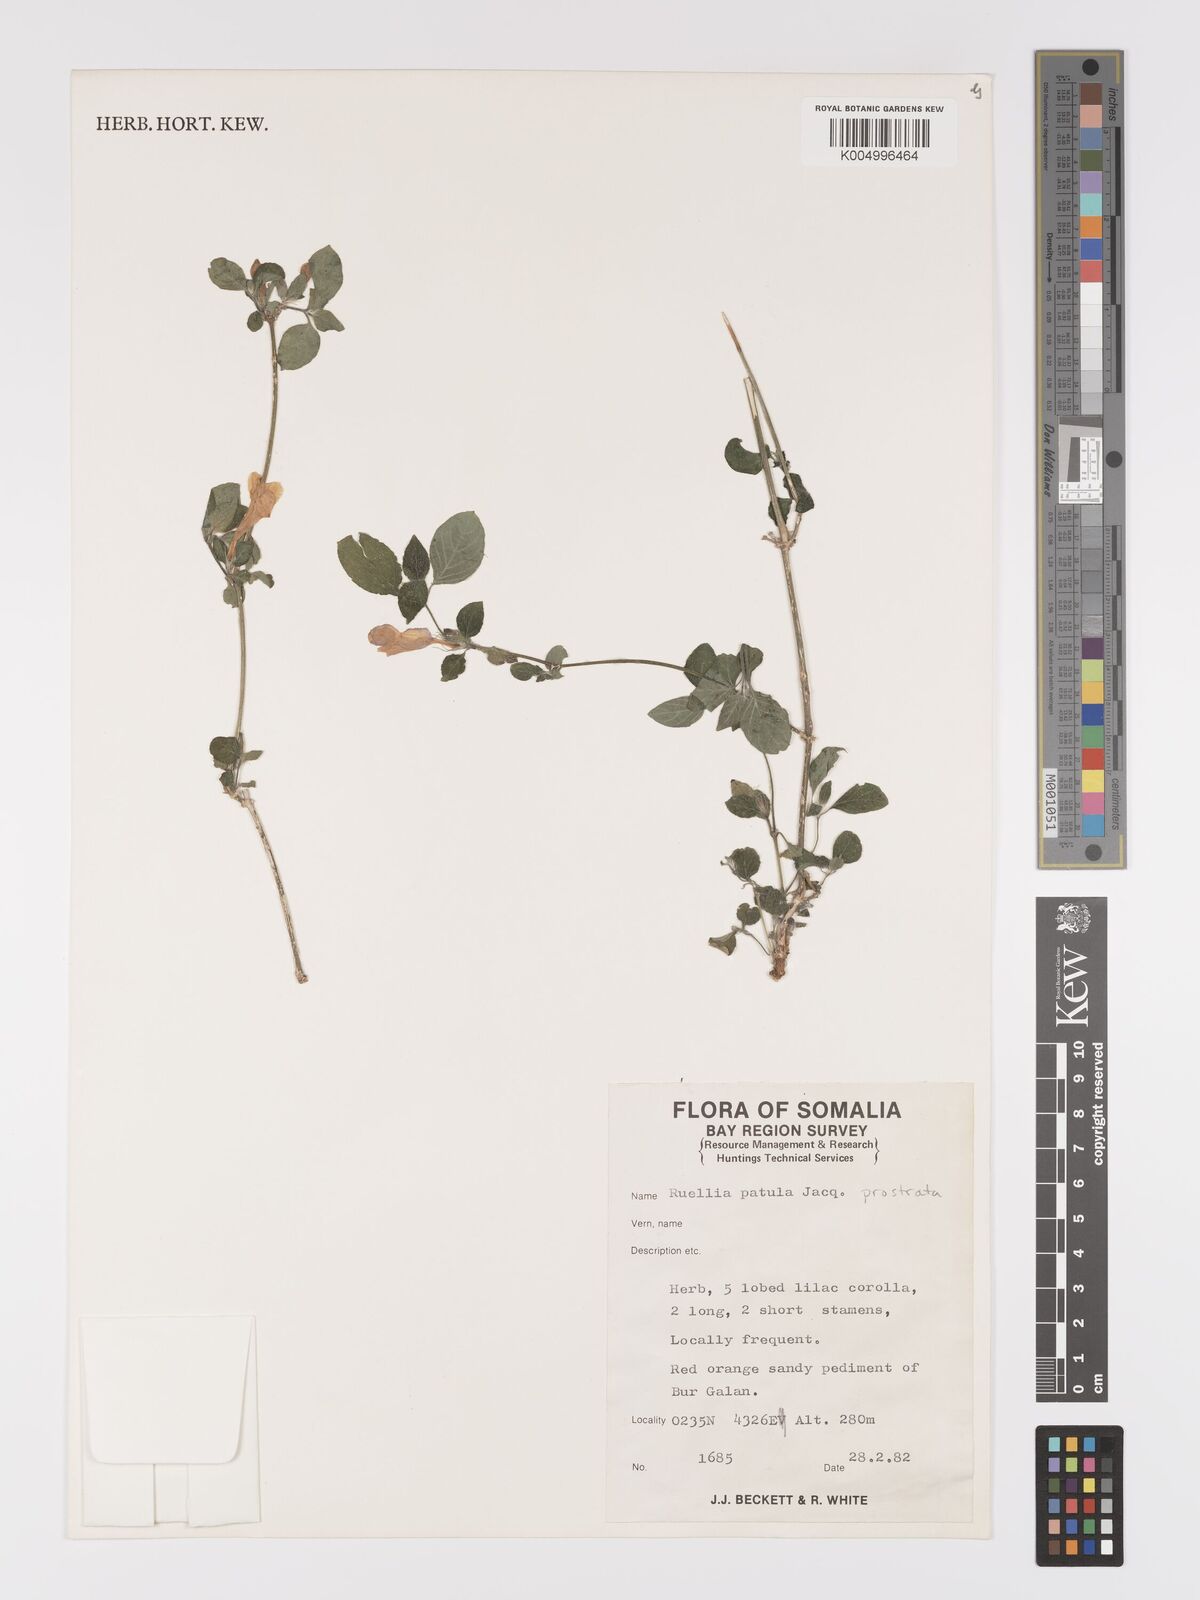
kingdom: Plantae
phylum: Tracheophyta
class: Magnoliopsida
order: Lamiales
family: Acanthaceae
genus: Ruellia
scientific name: Ruellia
